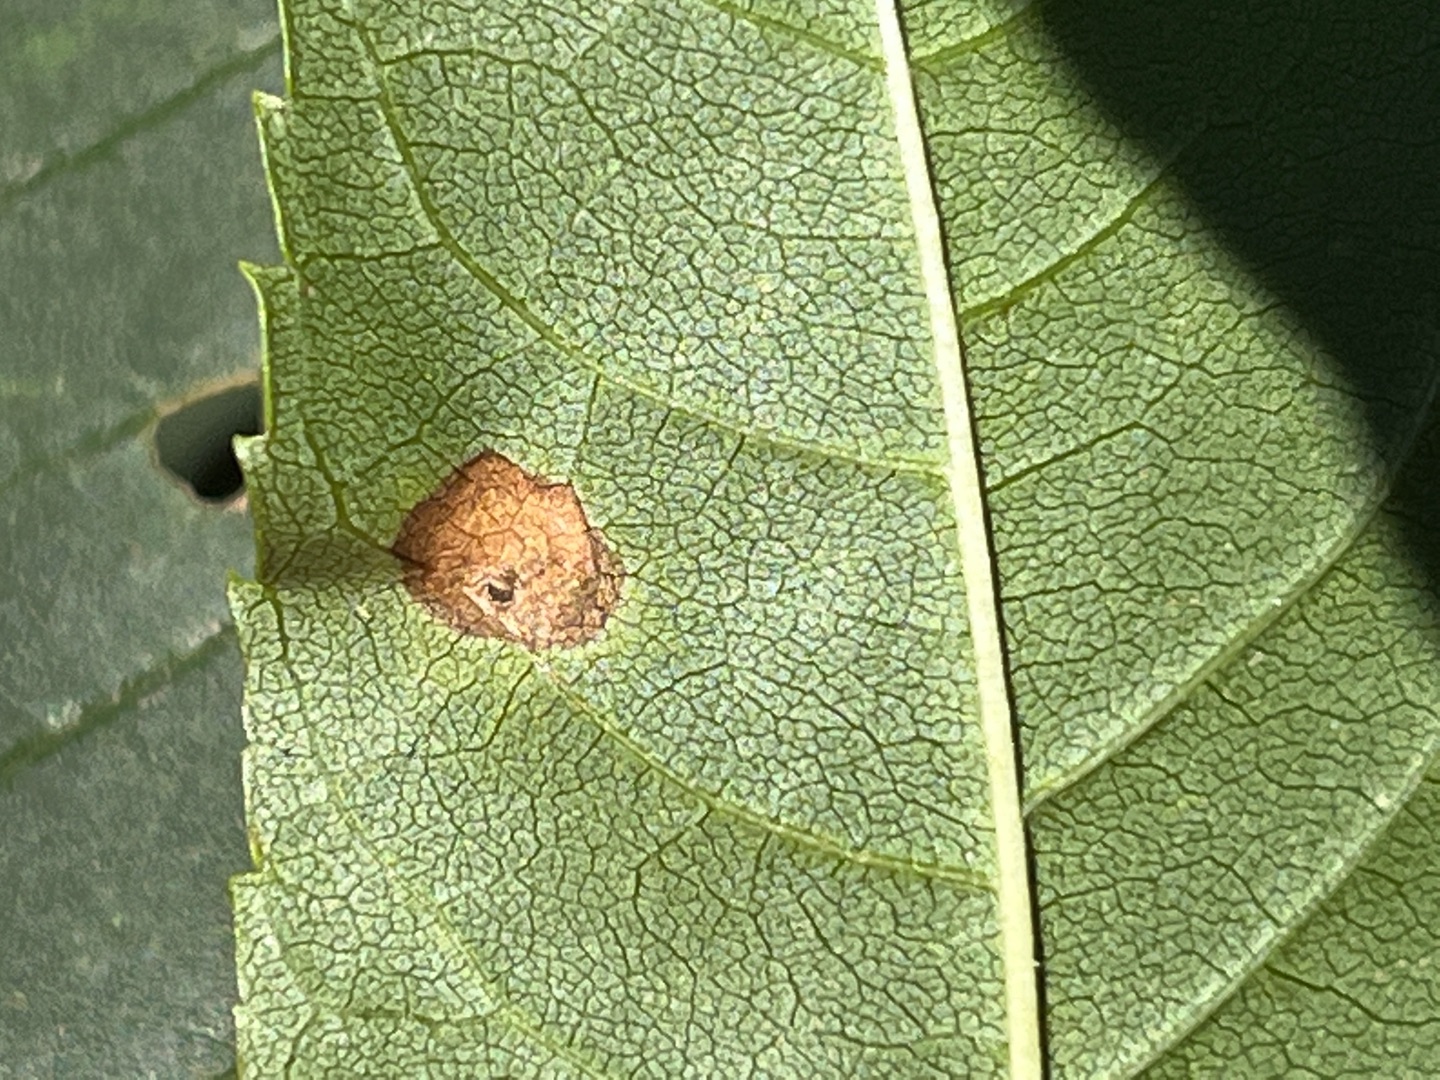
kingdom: Animalia
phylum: Arthropoda
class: Insecta
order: Diptera
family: Cecidomyiidae
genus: Dasineura
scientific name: Dasineura fraxinea
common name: Askeblæregalmyg
